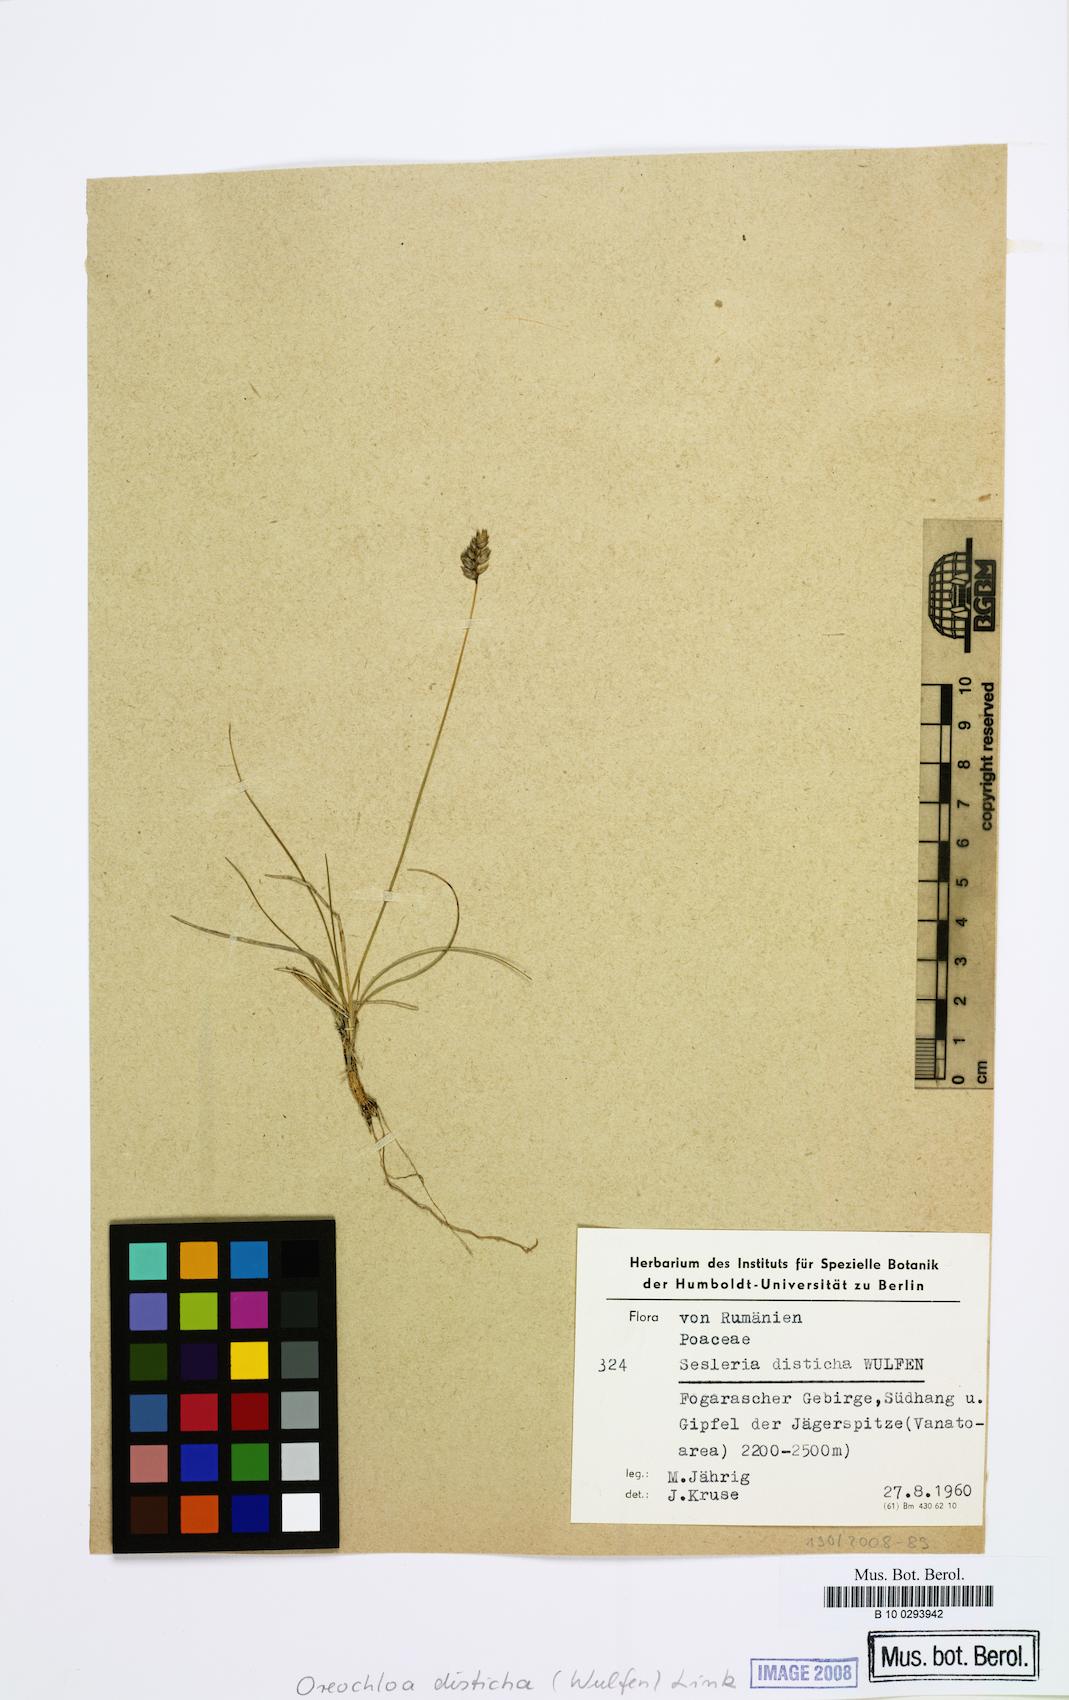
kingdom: Plantae
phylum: Tracheophyta
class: Liliopsida
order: Poales
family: Poaceae
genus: Oreochloa
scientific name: Oreochloa disticha
